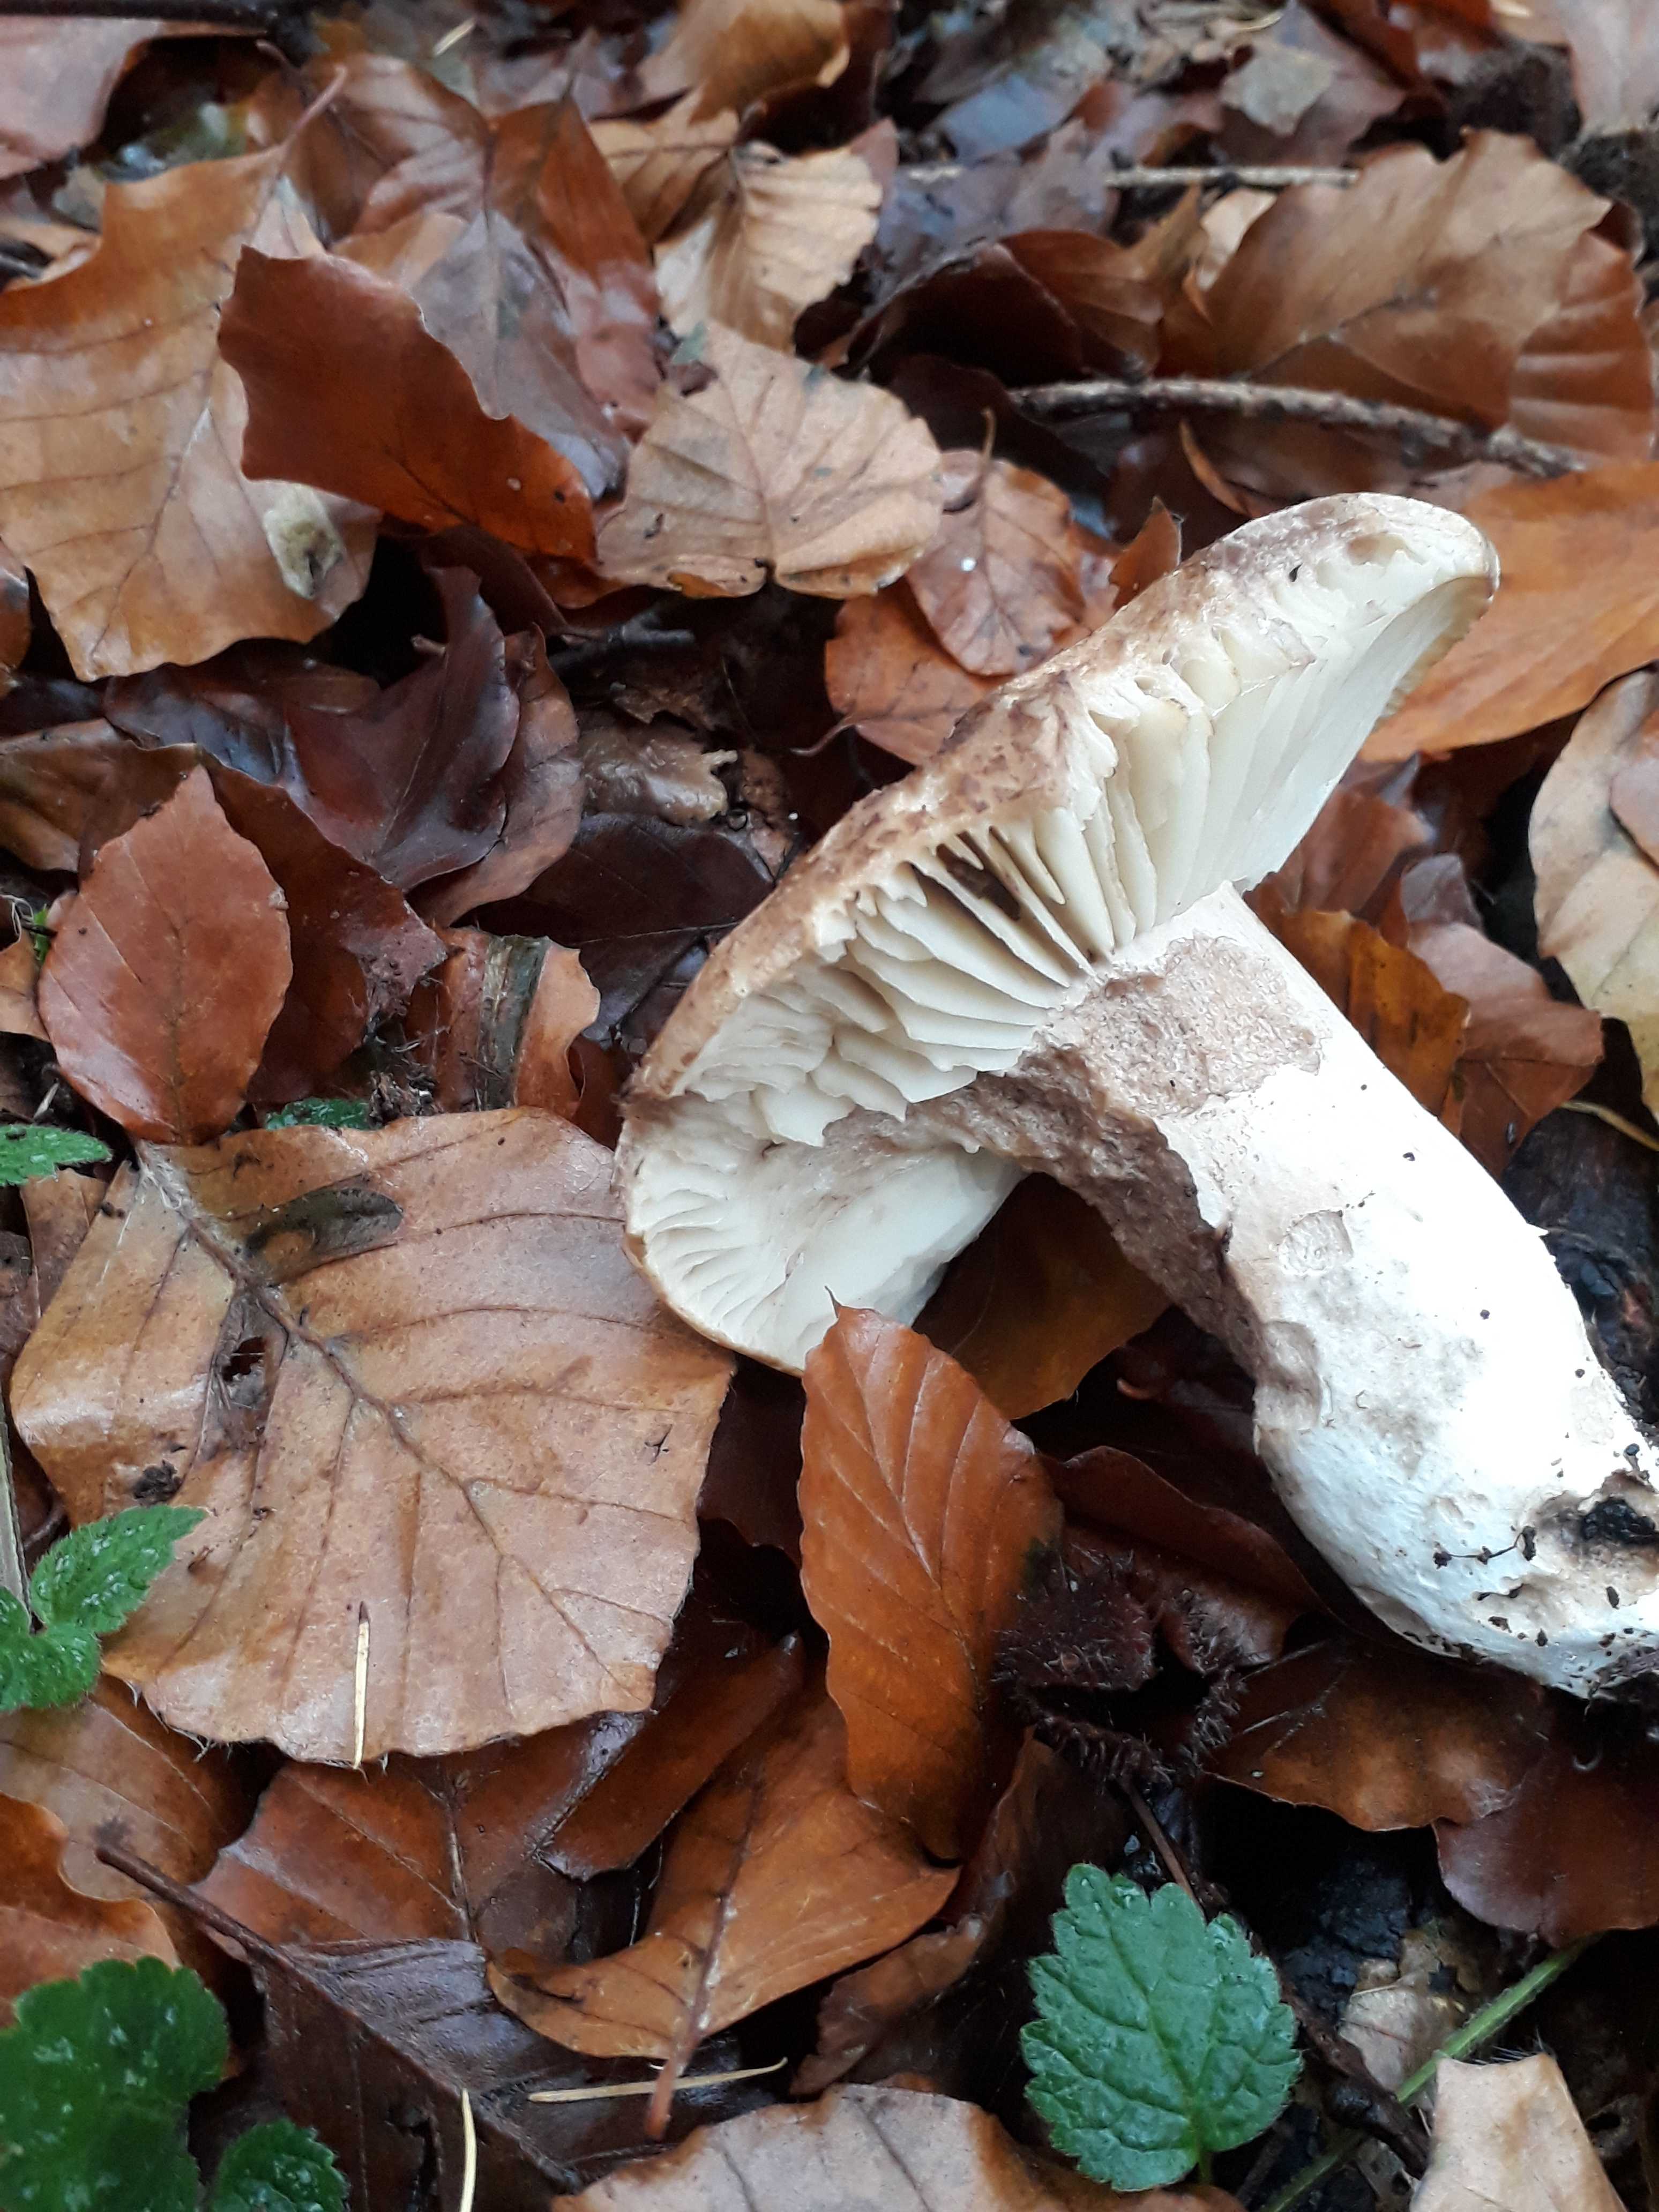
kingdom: Fungi
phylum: Basidiomycota
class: Agaricomycetes
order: Russulales
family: Russulaceae
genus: Russula
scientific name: Russula adusta
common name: sværtende skørhat
